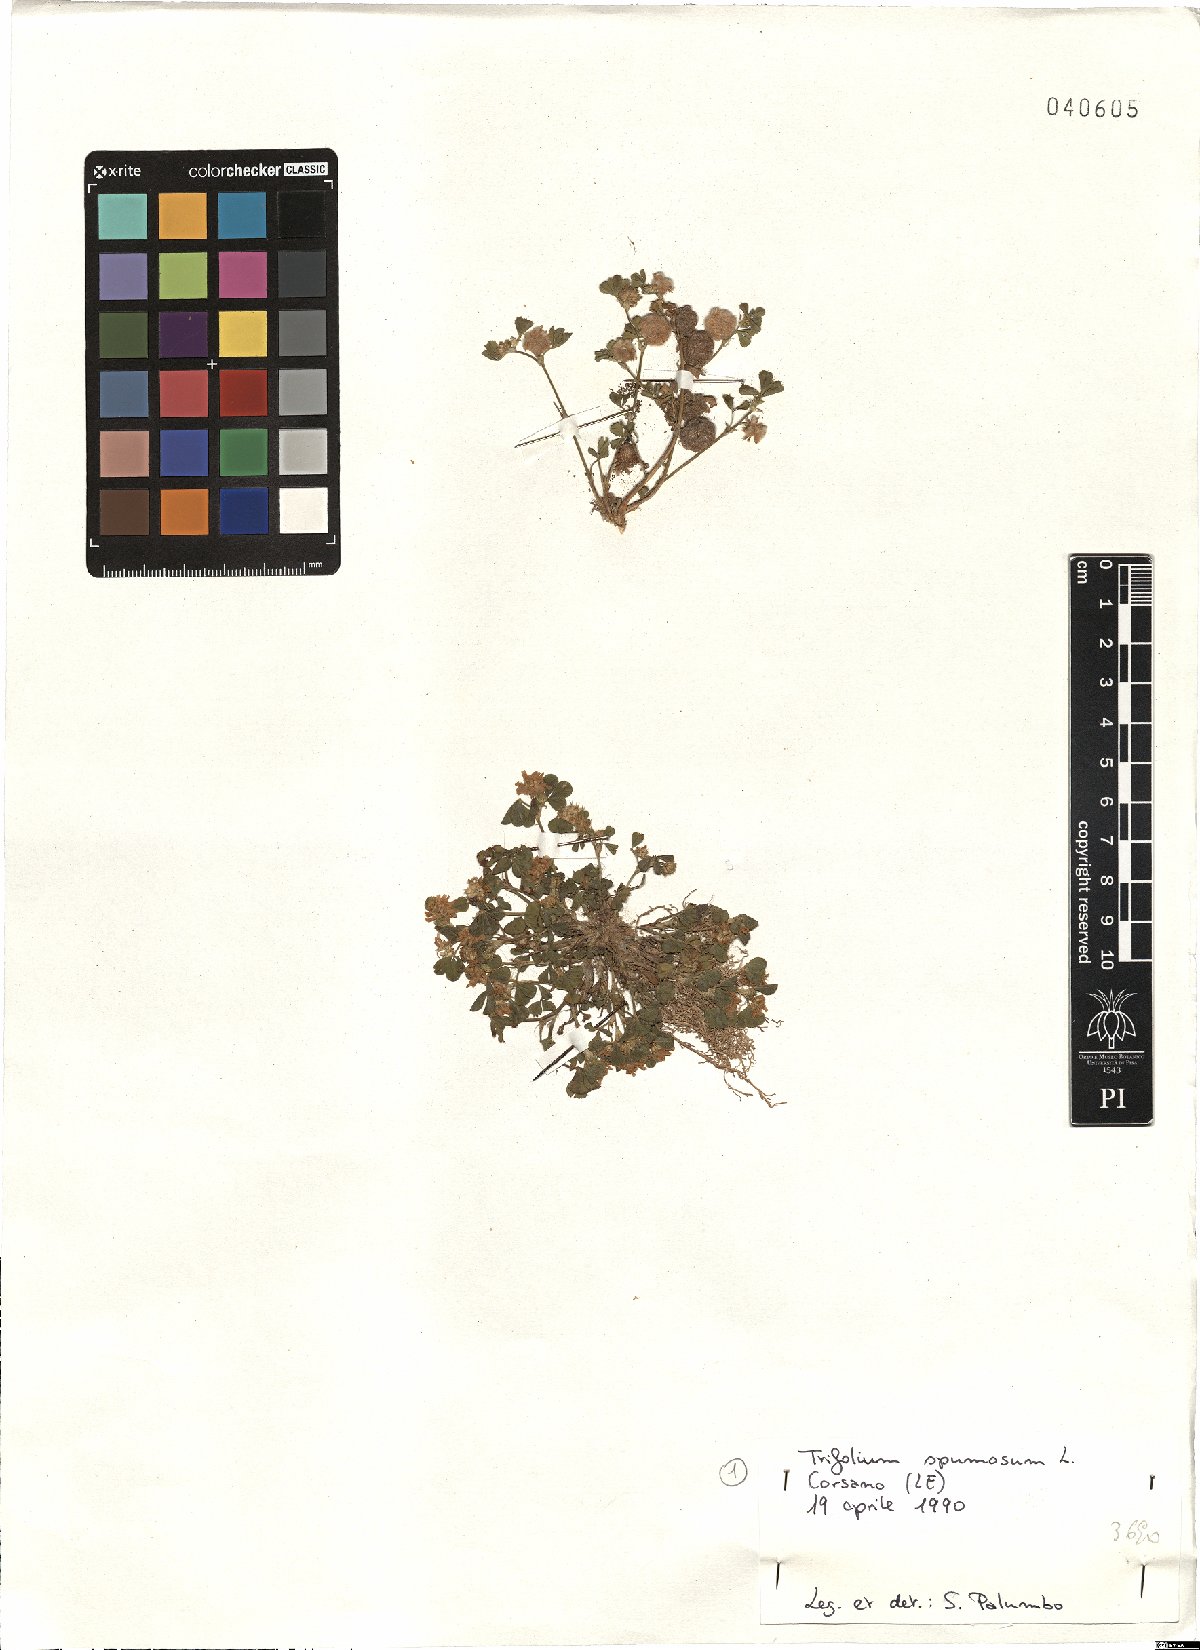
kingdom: Plantae
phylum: Tracheophyta
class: Magnoliopsida
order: Fabales
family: Fabaceae
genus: Trifolium
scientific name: Trifolium spumosum
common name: Mediterranean clover
